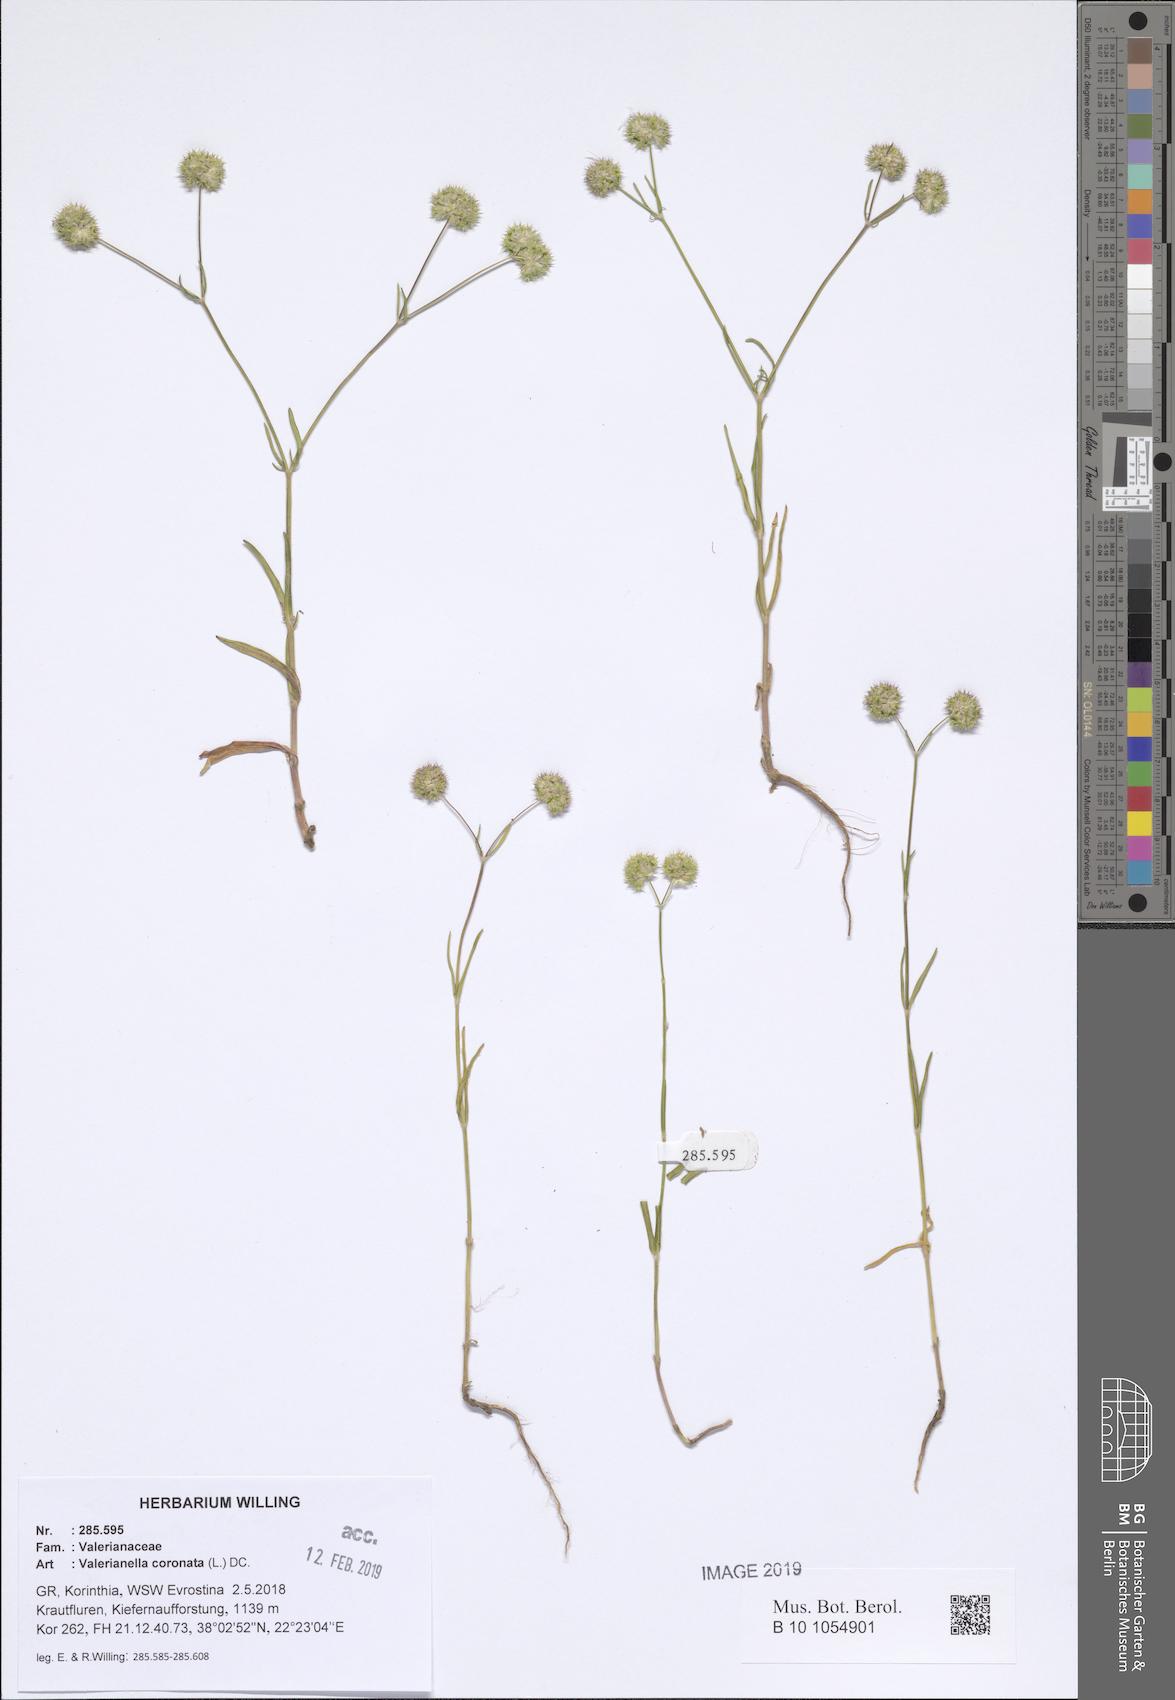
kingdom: Plantae
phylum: Tracheophyta
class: Magnoliopsida
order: Dipsacales
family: Caprifoliaceae
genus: Valerianella
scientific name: Valerianella coronata
